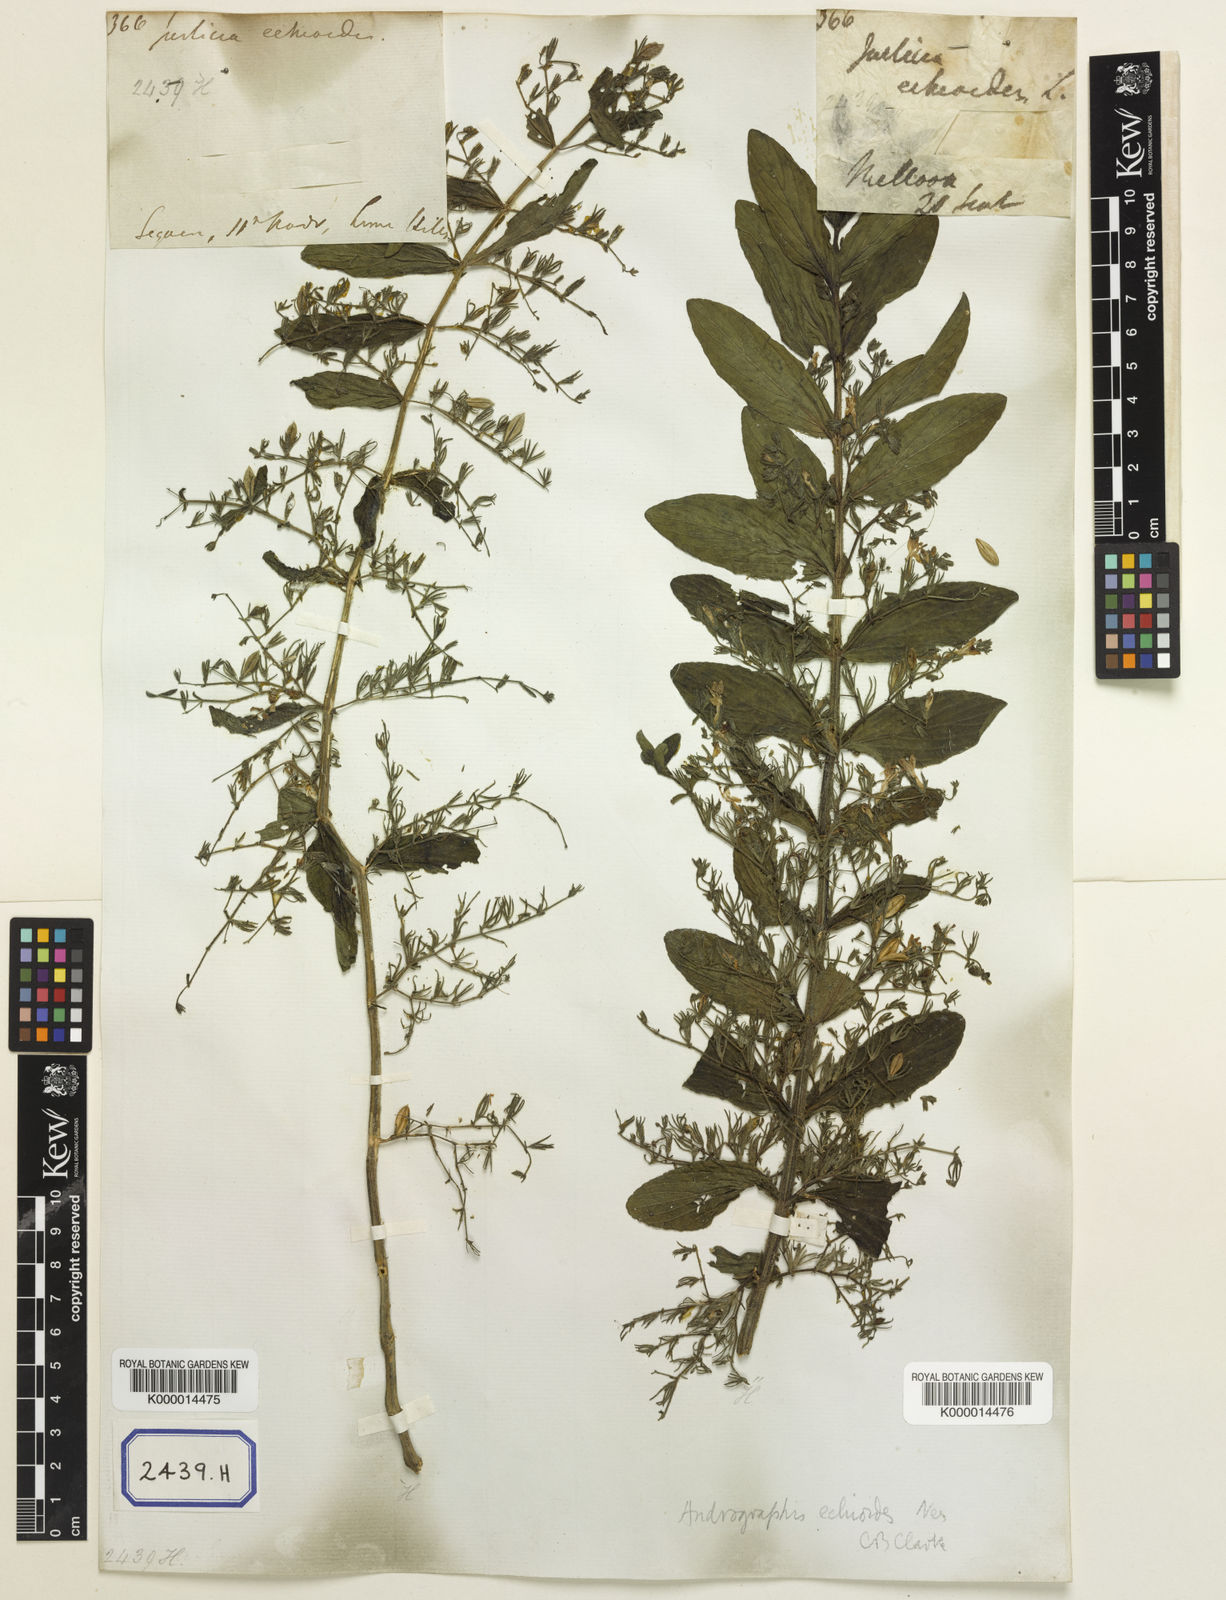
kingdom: Plantae
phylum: Tracheophyta
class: Magnoliopsida
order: Lamiales
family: Acanthaceae
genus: Andrographis
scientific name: Andrographis echioides
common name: False waterwillow
